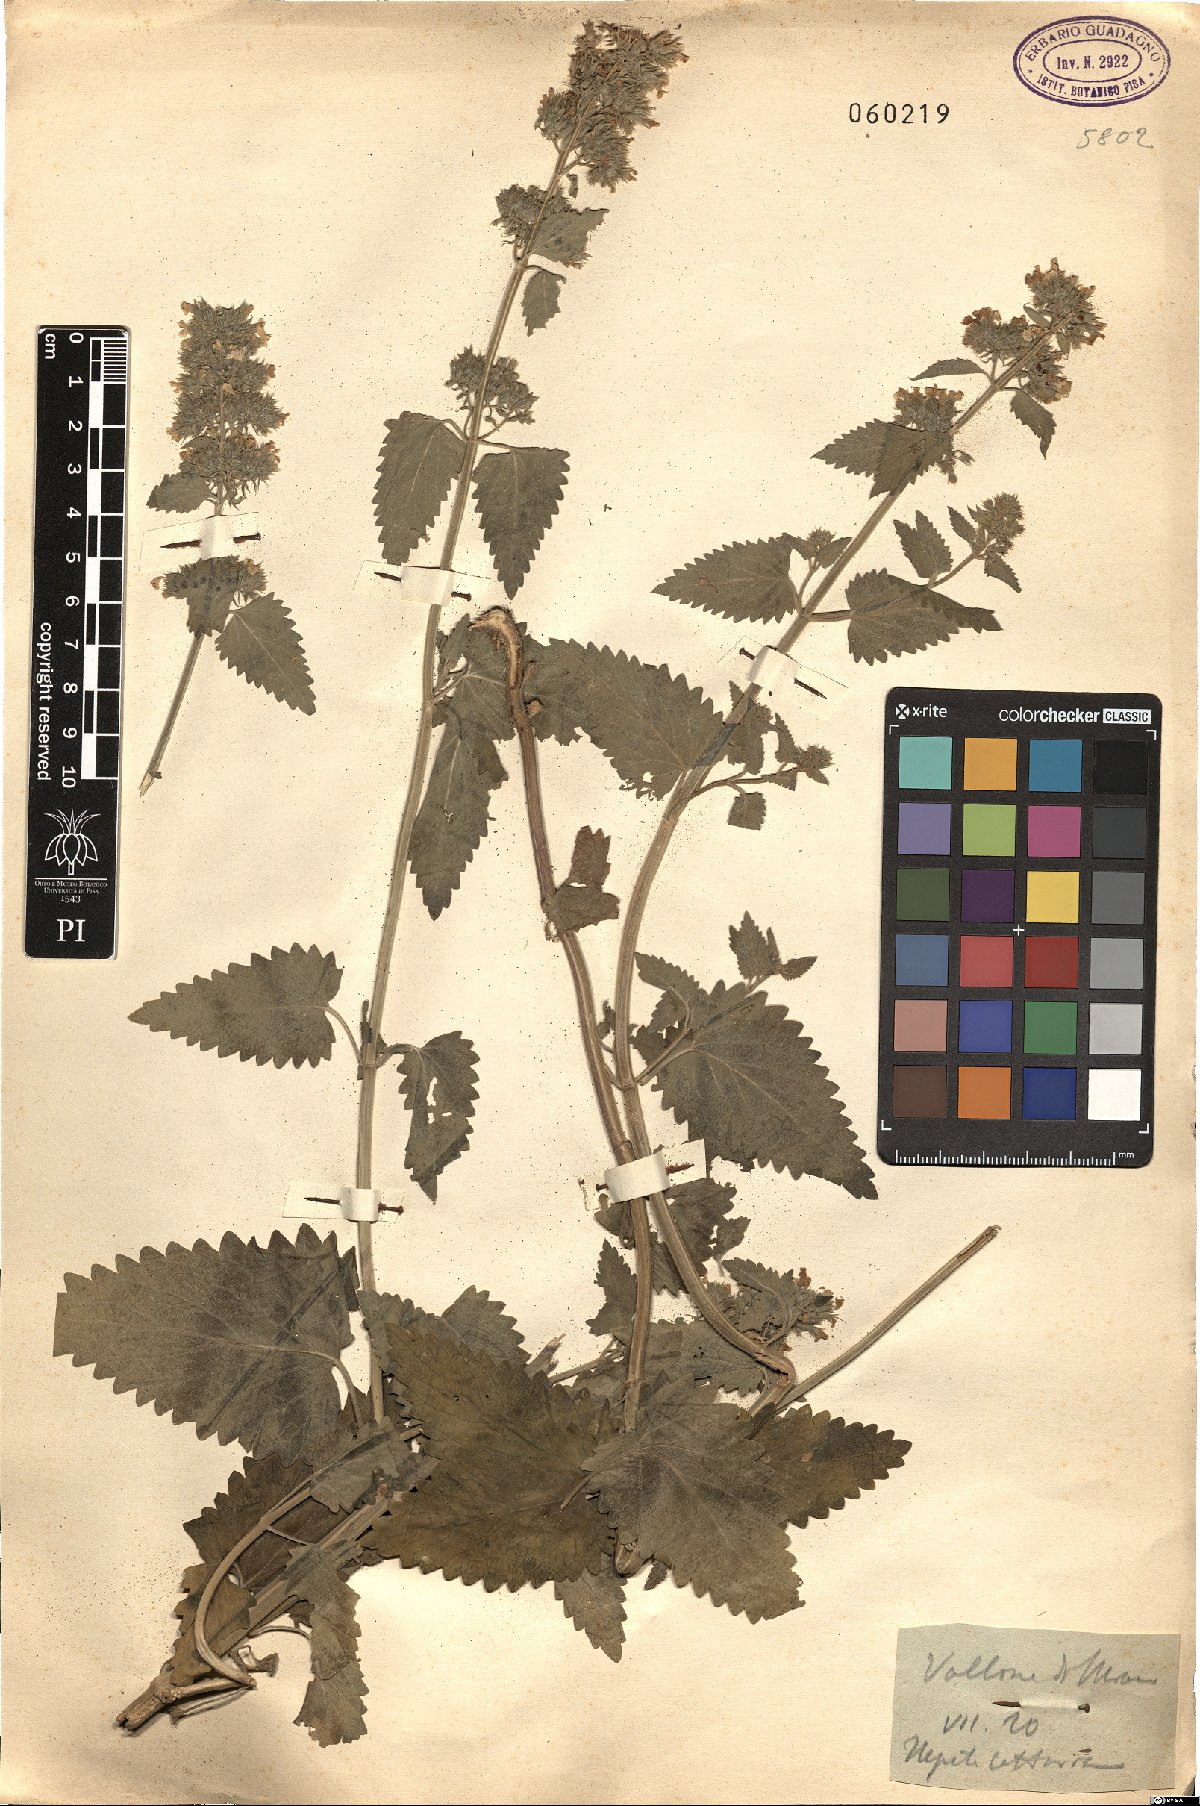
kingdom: Plantae
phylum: Tracheophyta
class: Magnoliopsida
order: Lamiales
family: Lamiaceae
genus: Nepeta
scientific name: Nepeta cataria
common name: Catnip
